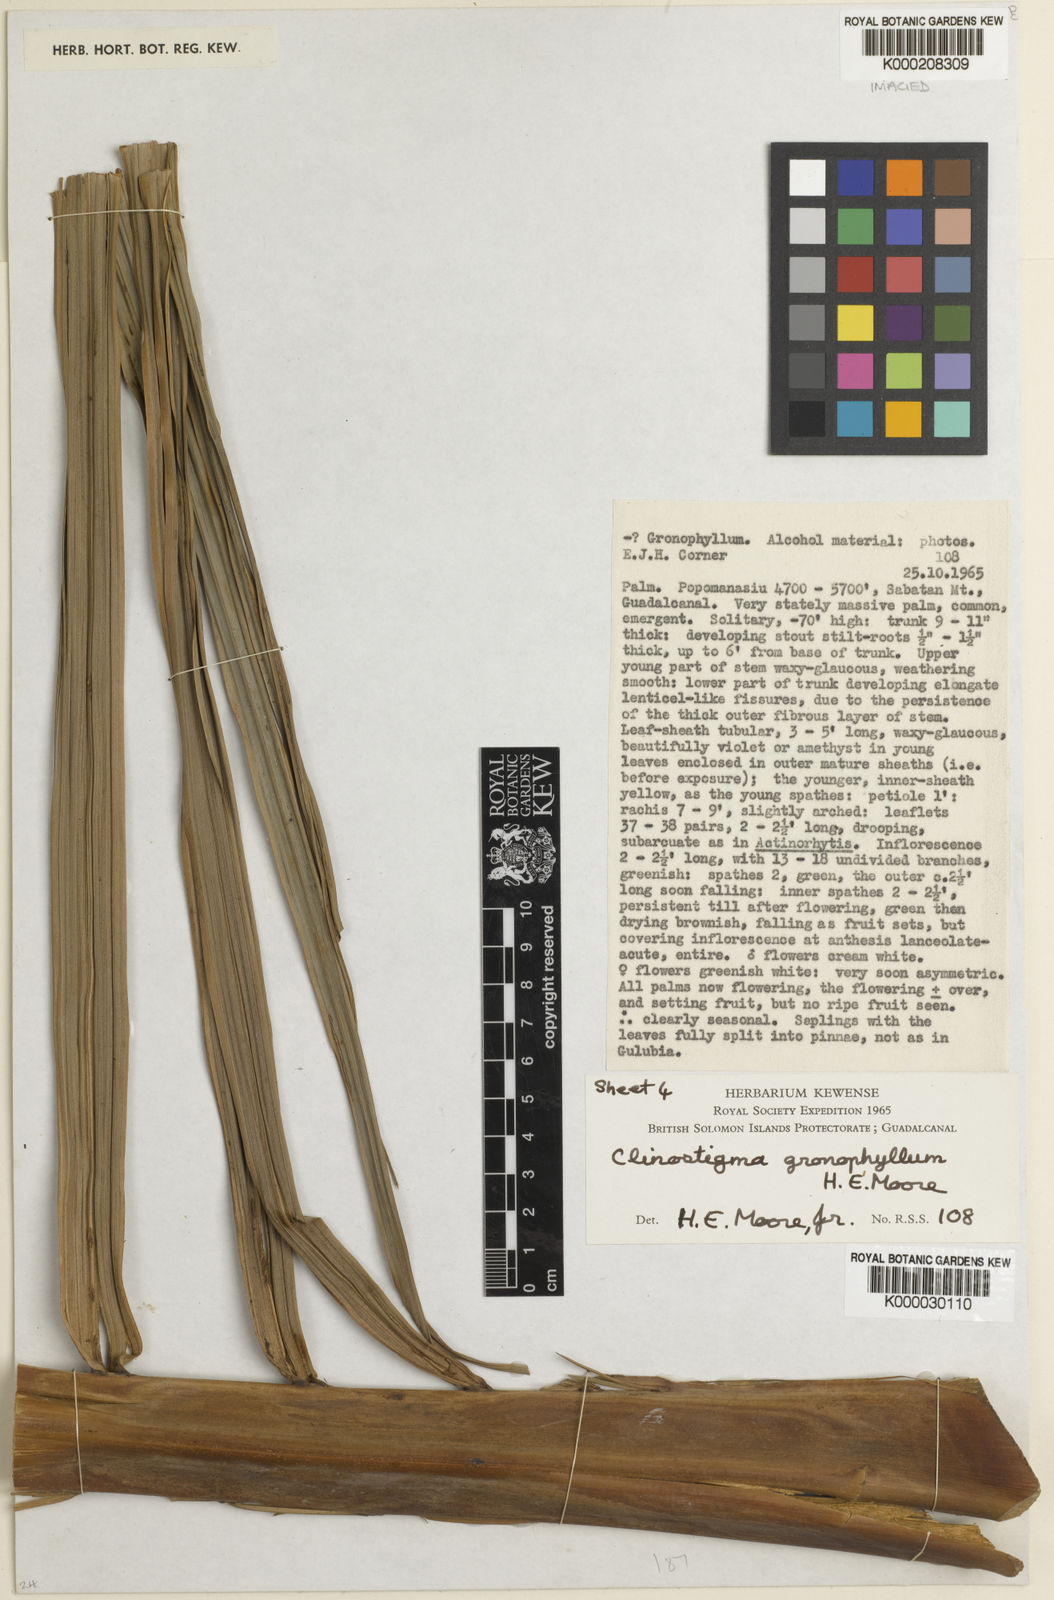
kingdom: Plantae
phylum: Tracheophyta
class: Liliopsida
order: Arecales
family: Arecaceae
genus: Clinostigma
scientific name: Clinostigma gronophyllum
